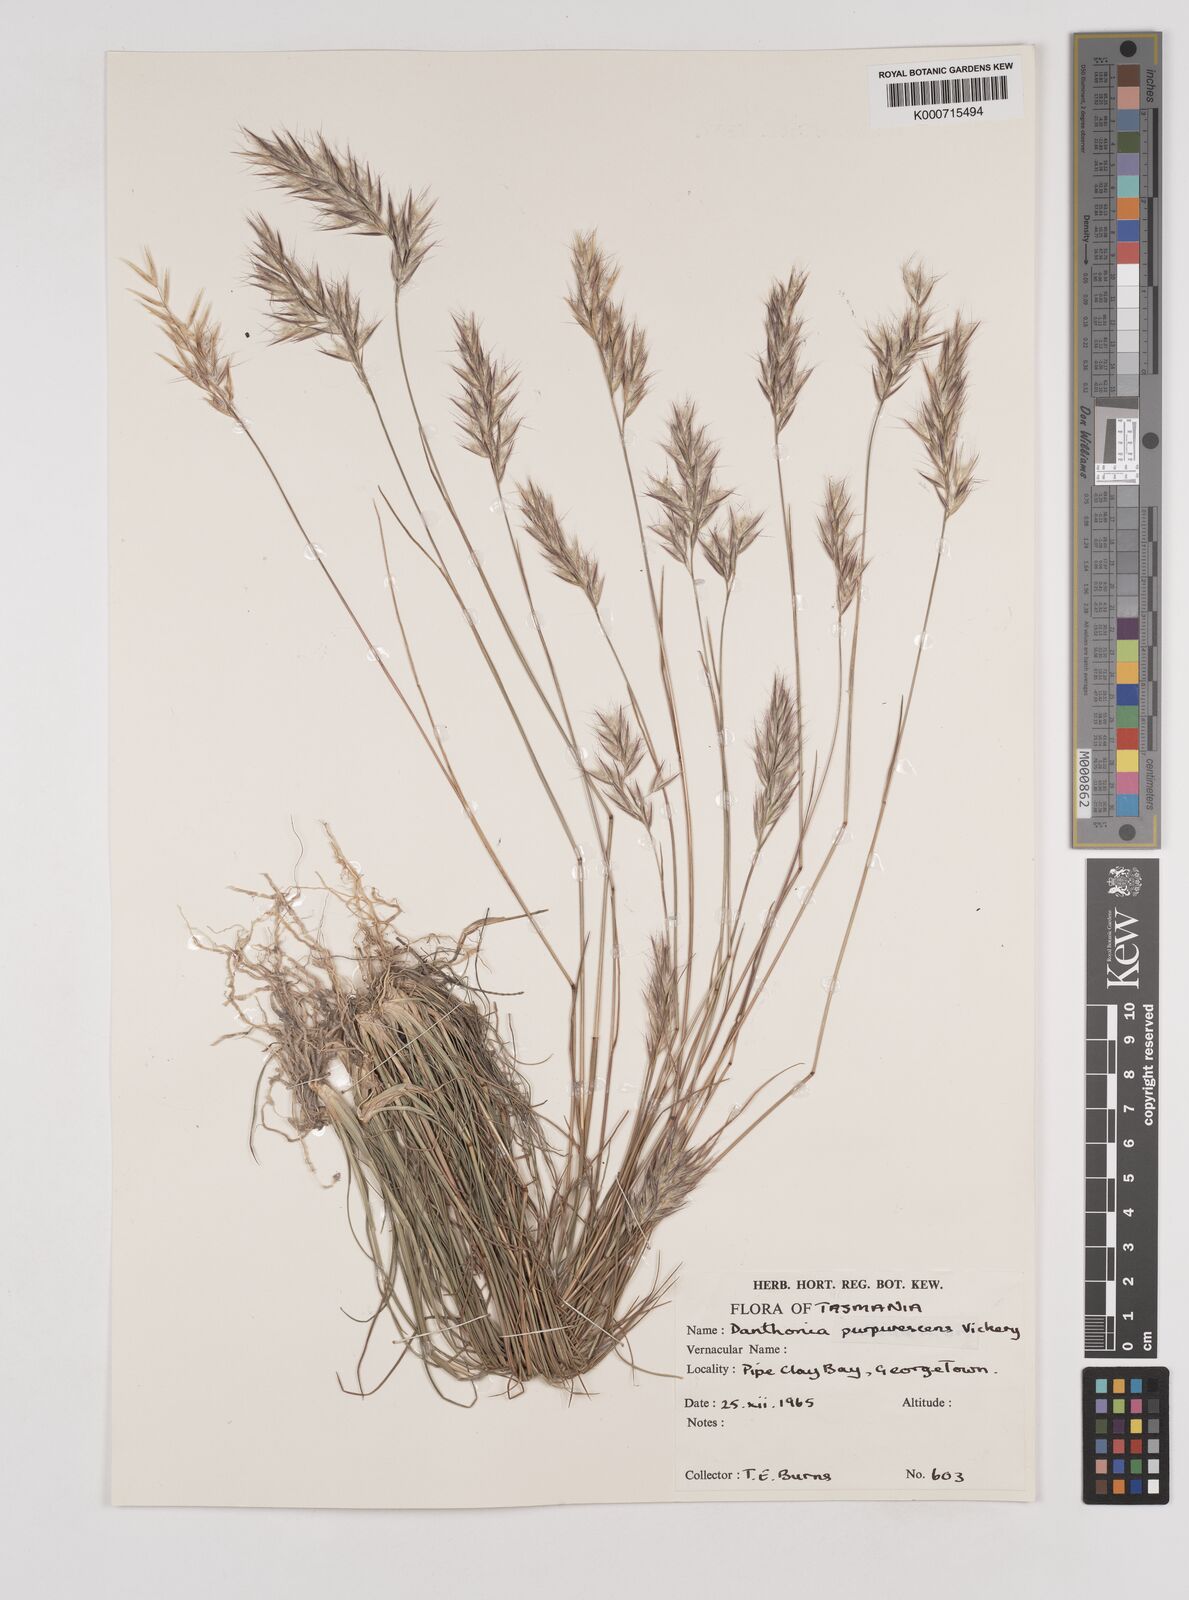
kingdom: Plantae
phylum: Tracheophyta
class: Liliopsida
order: Poales
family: Poaceae
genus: Rytidosperma
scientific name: Rytidosperma tenuius
